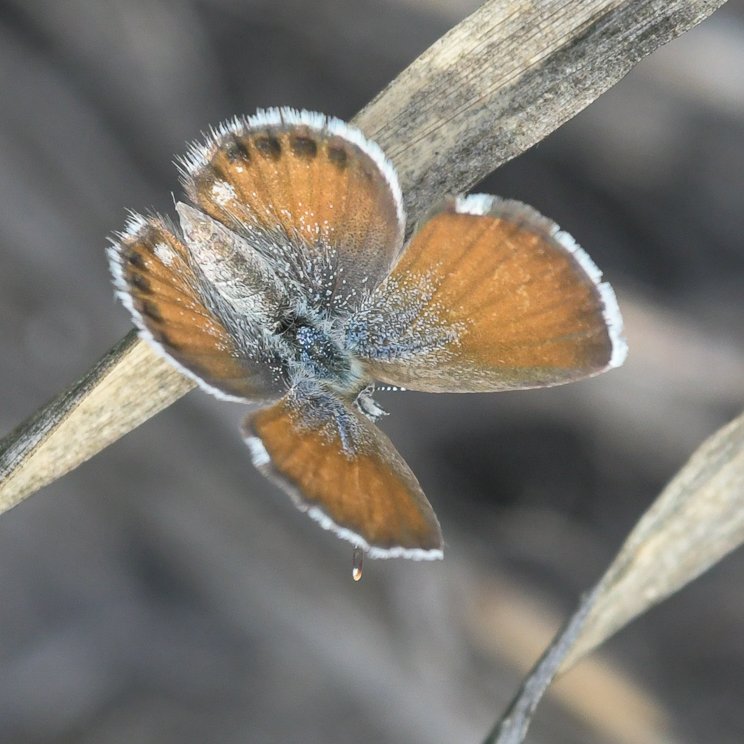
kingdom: Animalia
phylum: Arthropoda
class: Insecta
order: Lepidoptera
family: Lycaenidae
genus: Brephidium
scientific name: Brephidium exilis
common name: Western Pygmy-Blue
